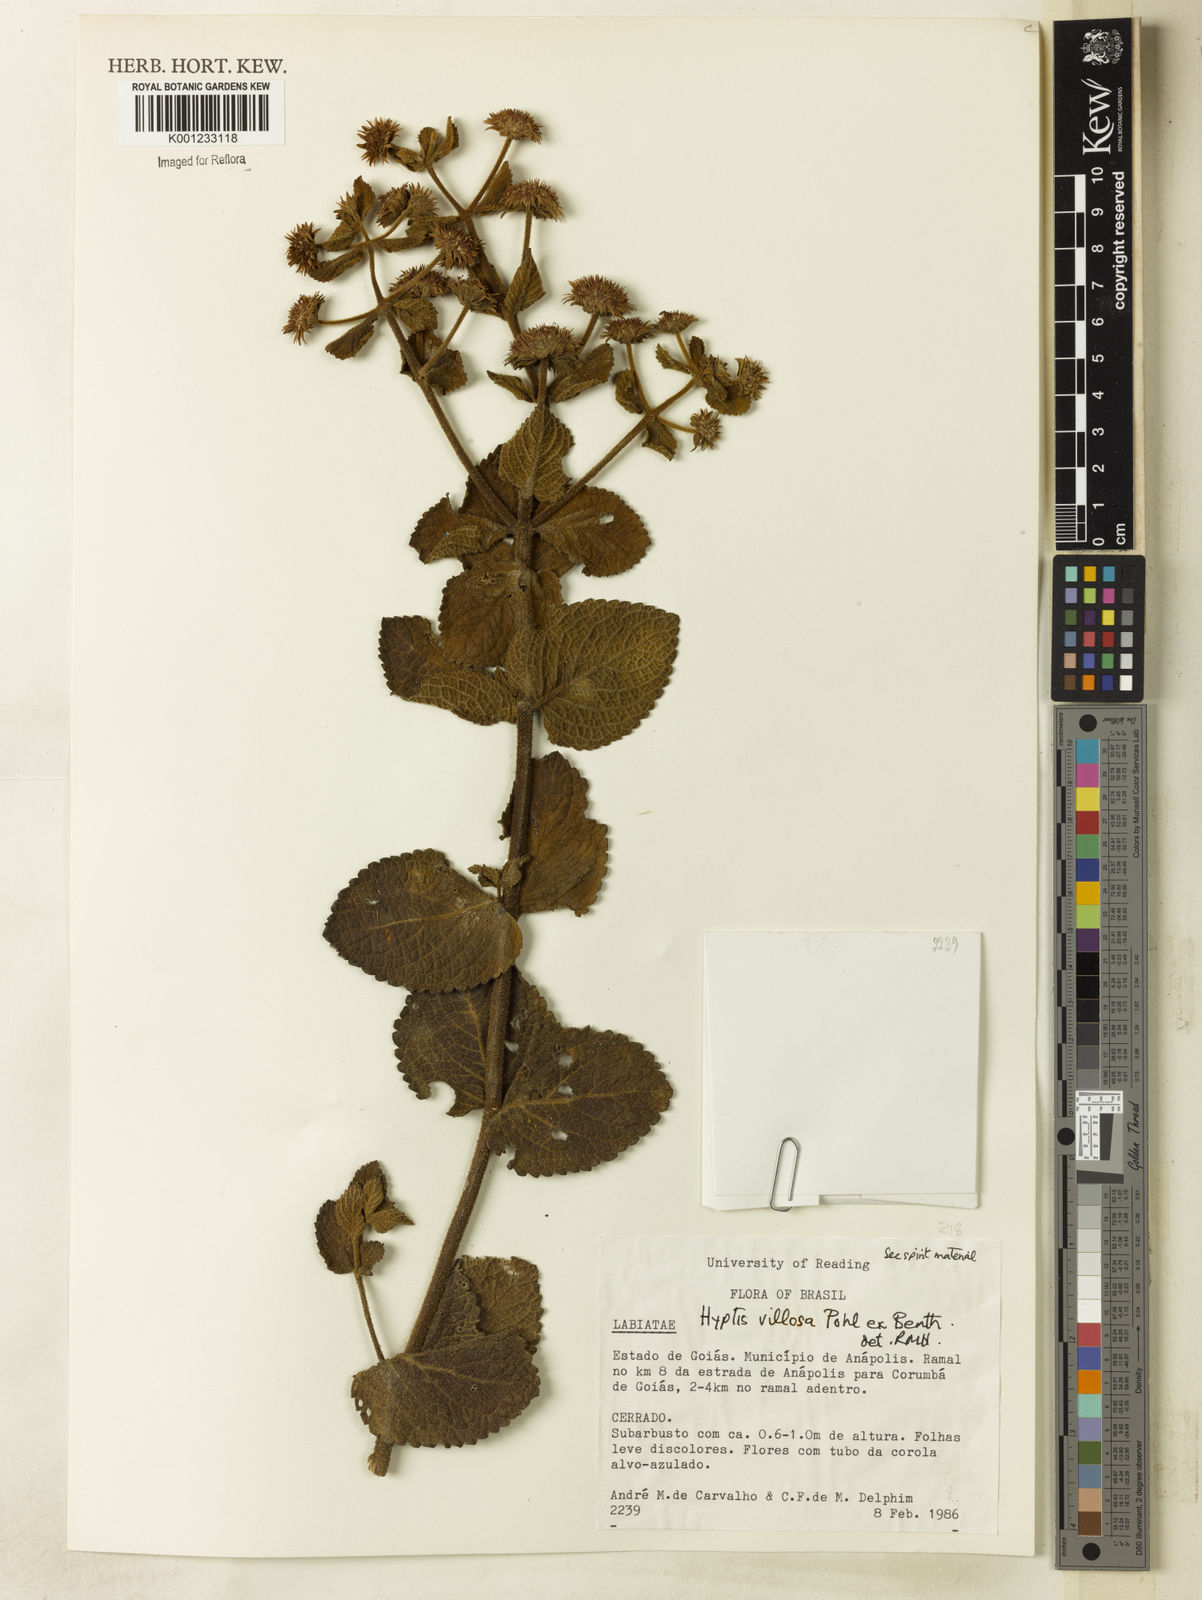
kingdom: Plantae
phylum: Tracheophyta
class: Magnoliopsida
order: Lamiales
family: Lamiaceae
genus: Hyptis
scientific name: Hyptis villosa
